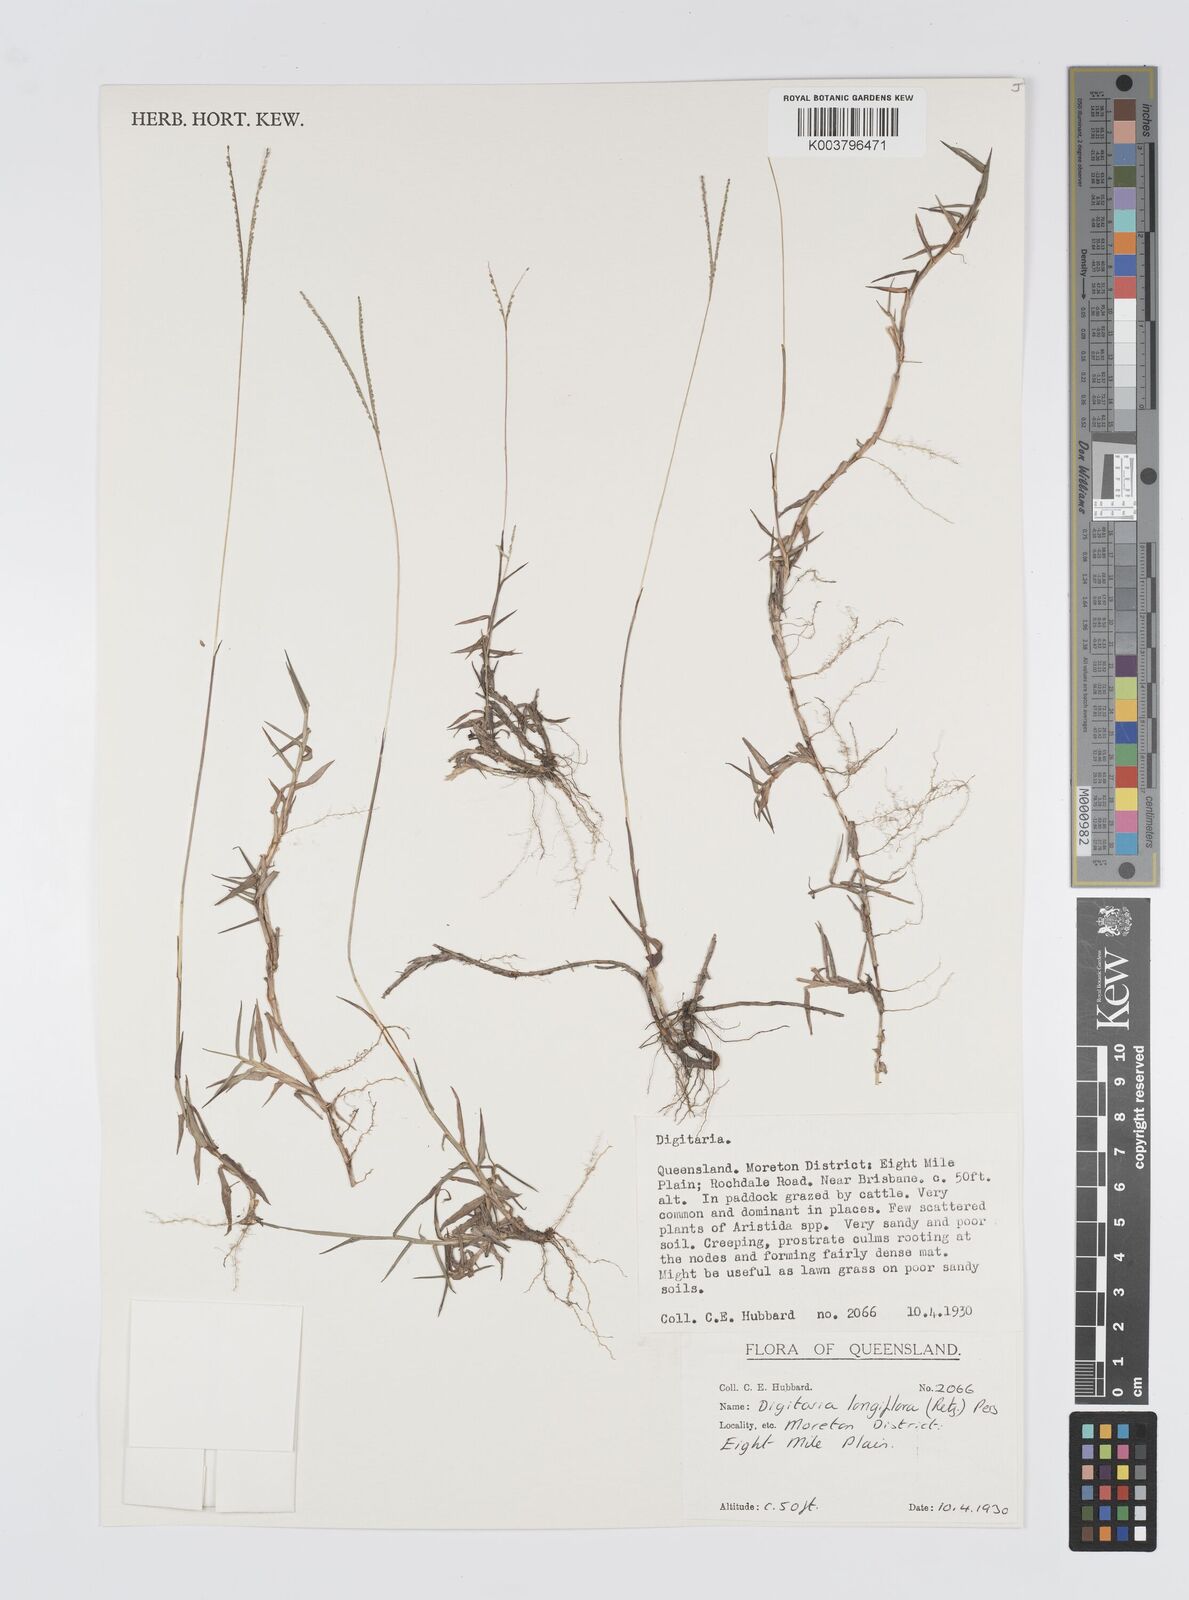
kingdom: Plantae
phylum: Tracheophyta
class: Liliopsida
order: Poales
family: Poaceae
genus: Digitaria
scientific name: Digitaria longiflora
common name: Wire crabgrass
